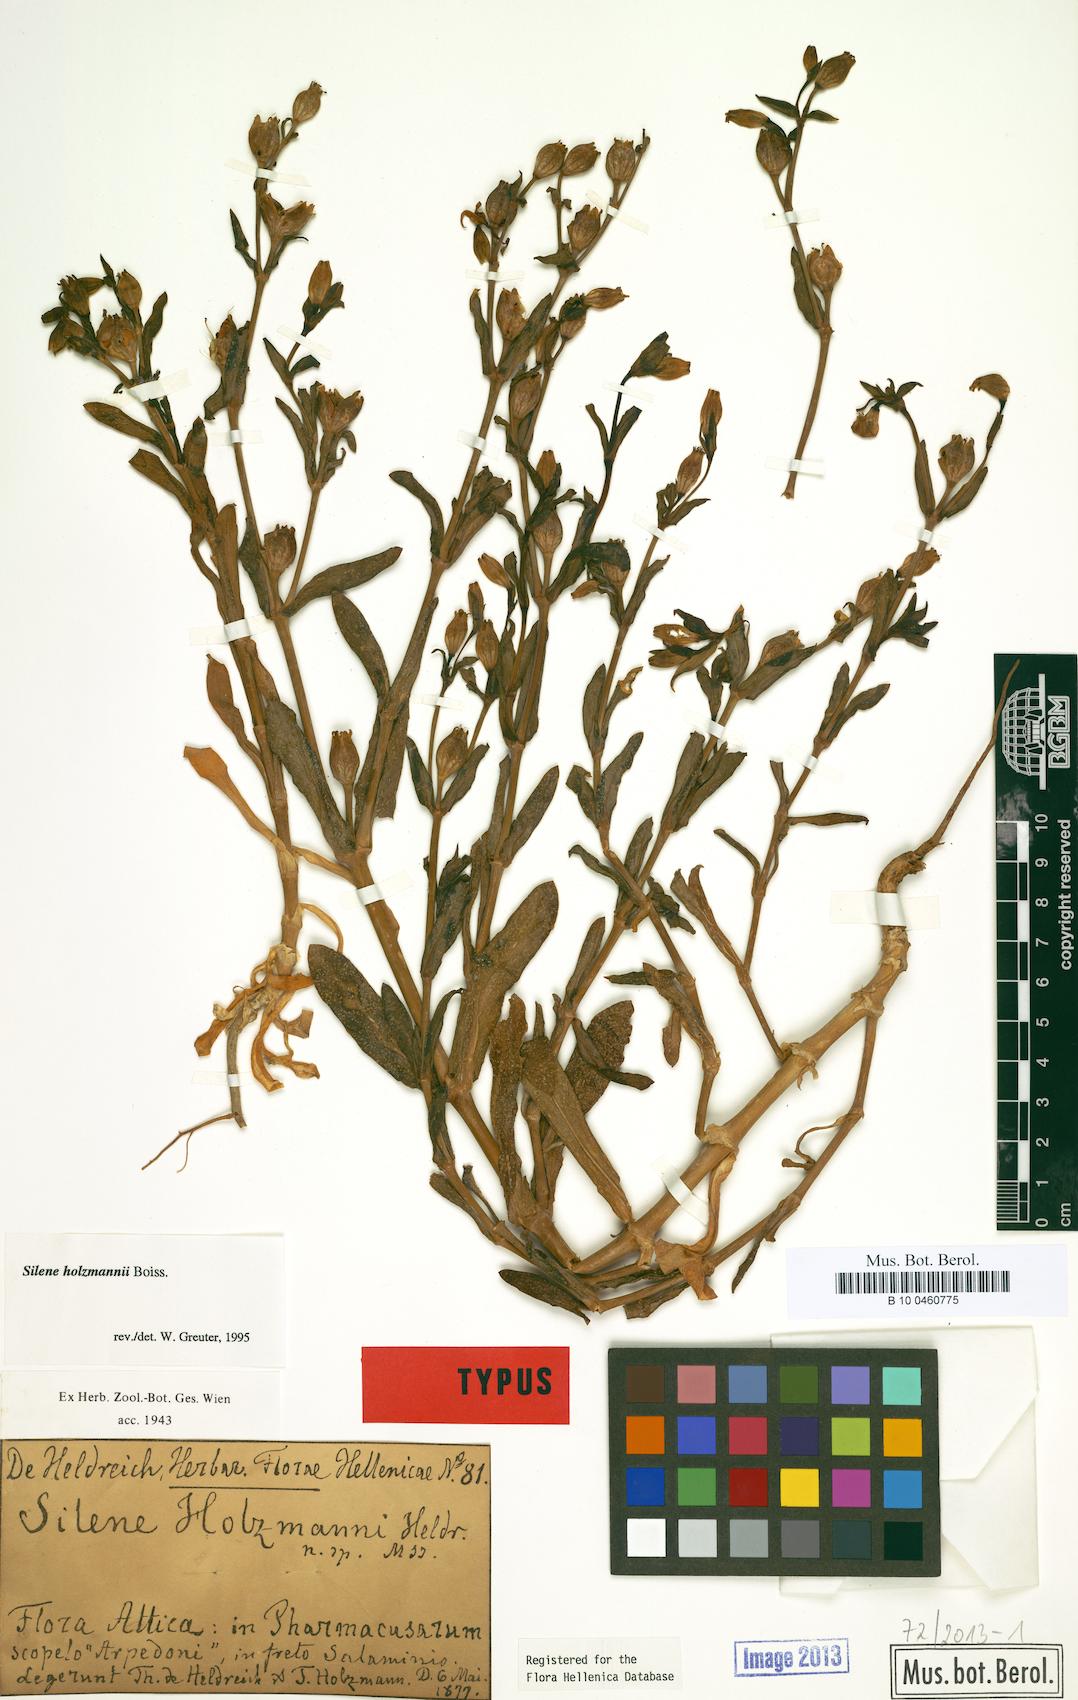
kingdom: Plantae
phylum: Tracheophyta
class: Magnoliopsida
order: Caryophyllales
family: Caryophyllaceae
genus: Silene
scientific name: Silene holzmannii
